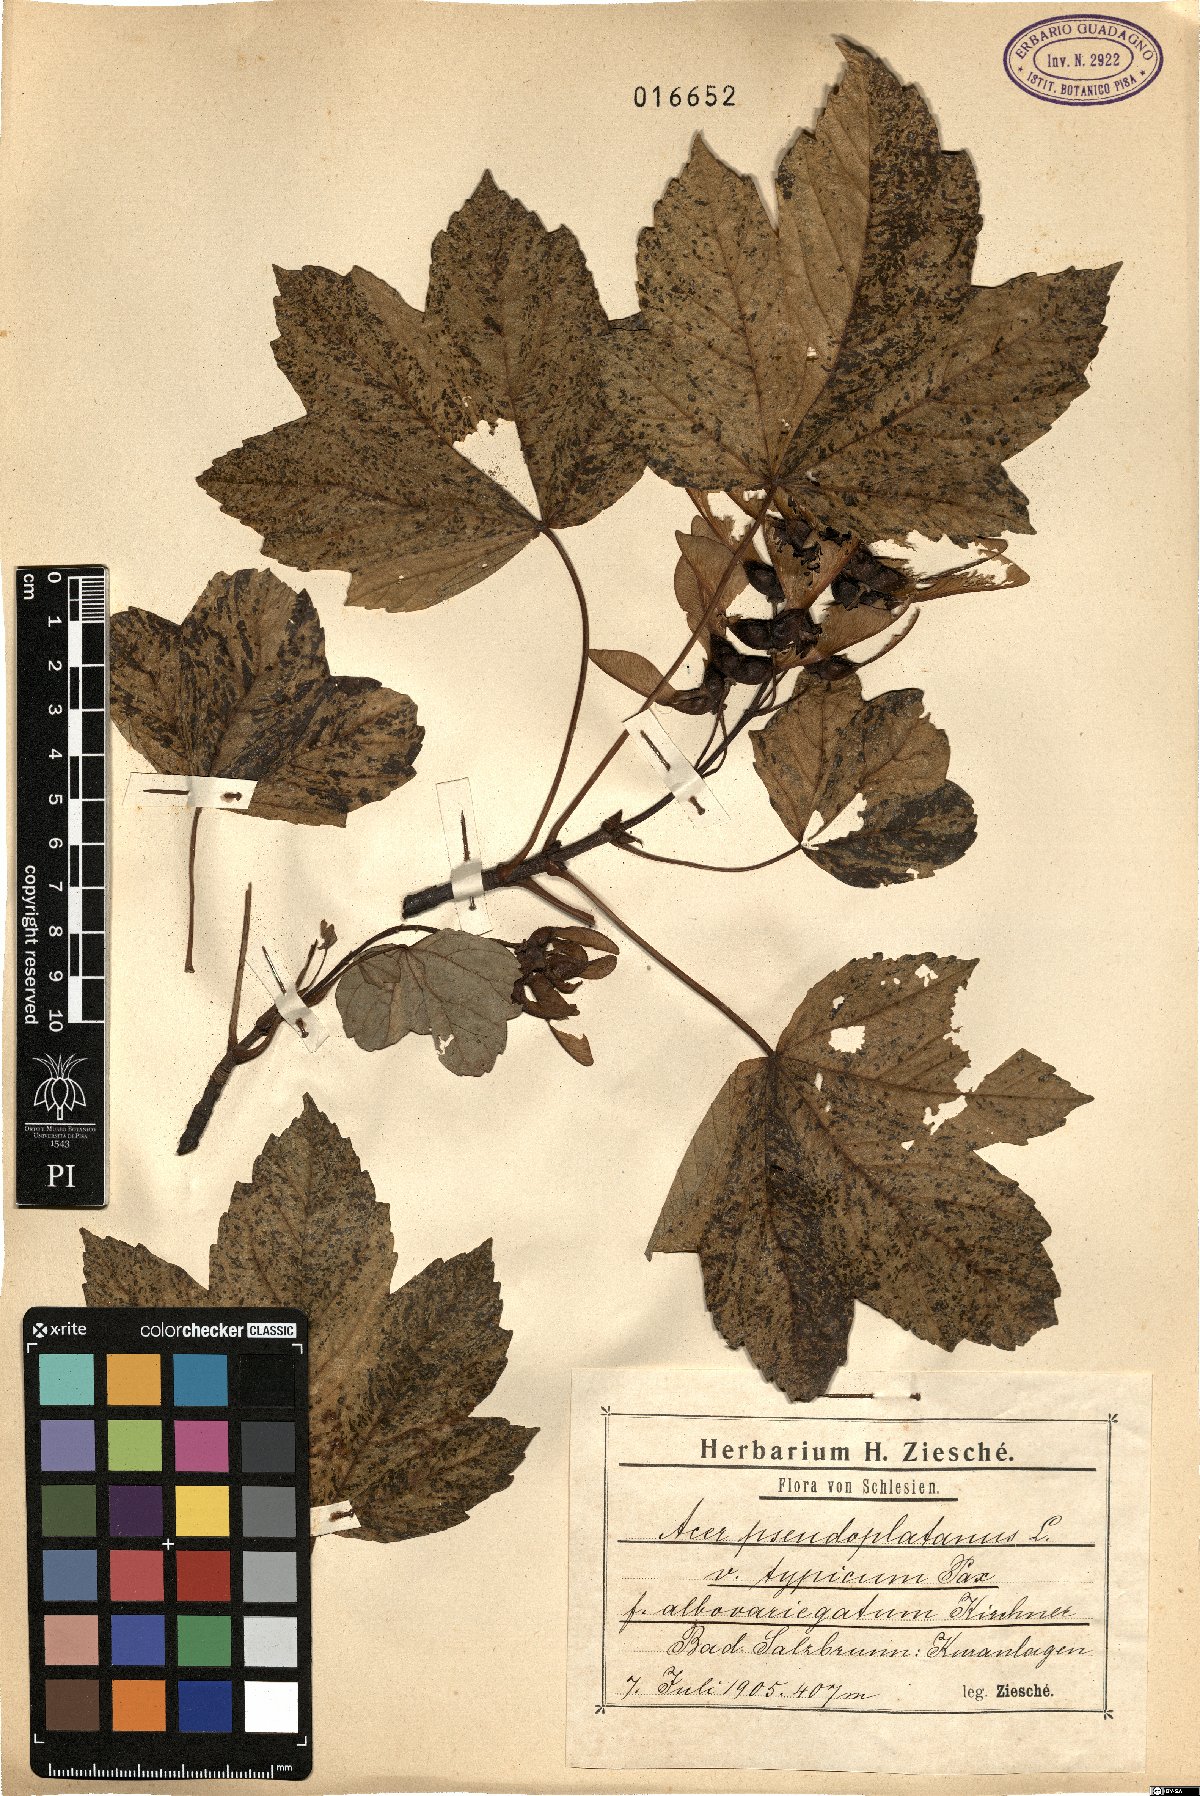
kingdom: Plantae
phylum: Tracheophyta
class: Magnoliopsida
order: Sapindales
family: Sapindaceae
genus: Acer
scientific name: Acer pseudoplatanus
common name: Sycamore
